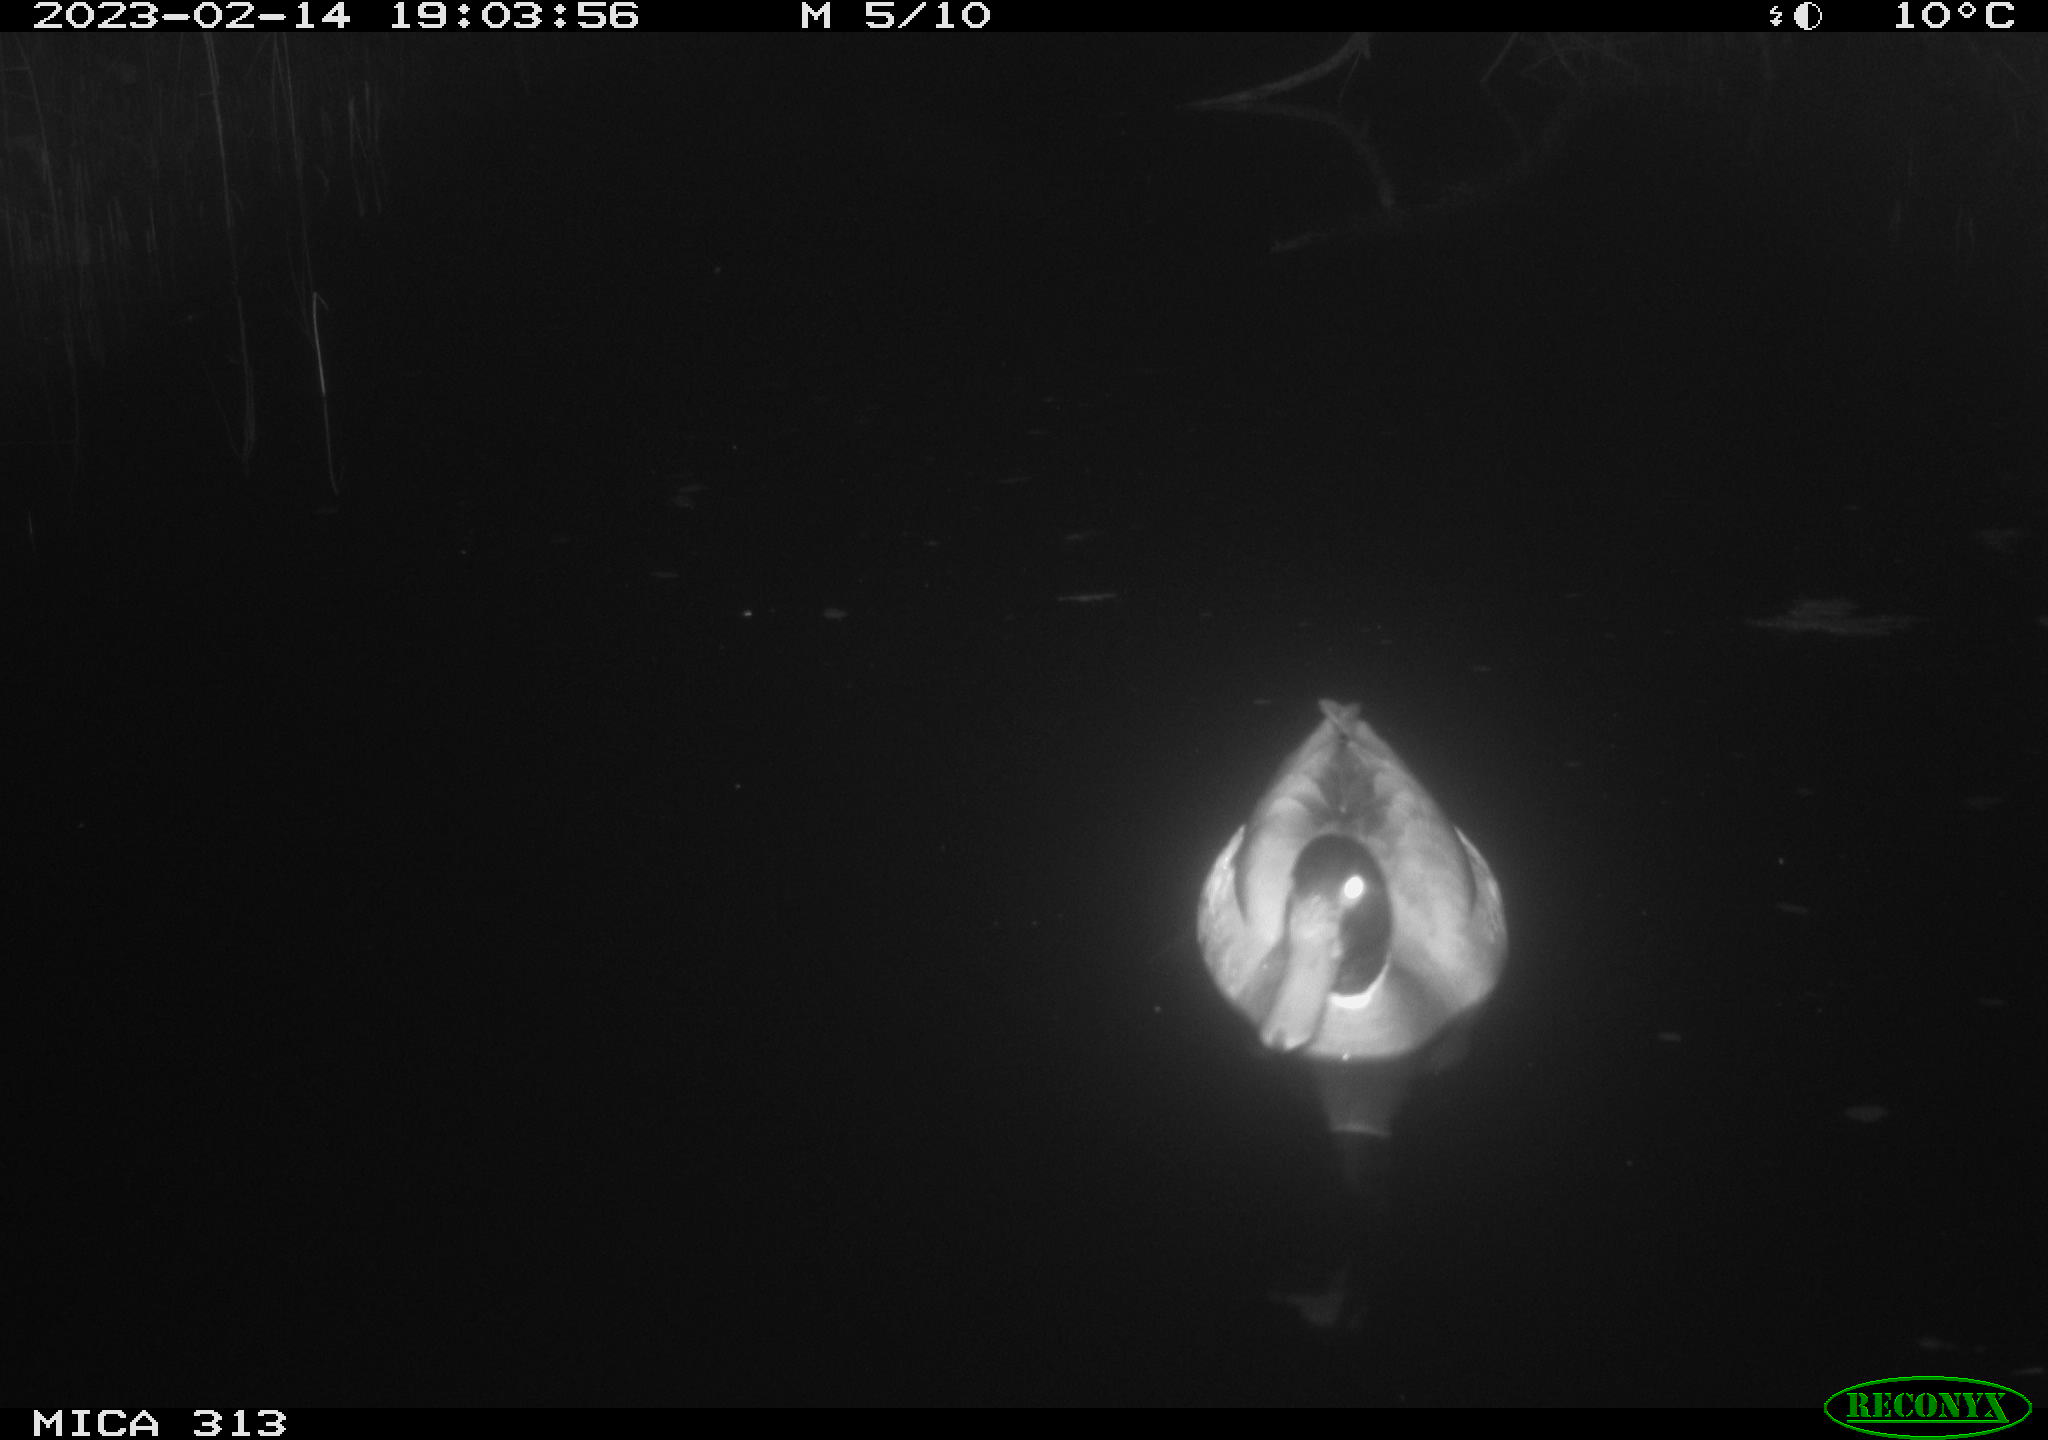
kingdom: Animalia
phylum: Chordata
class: Aves
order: Anseriformes
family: Anatidae
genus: Anas
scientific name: Anas
